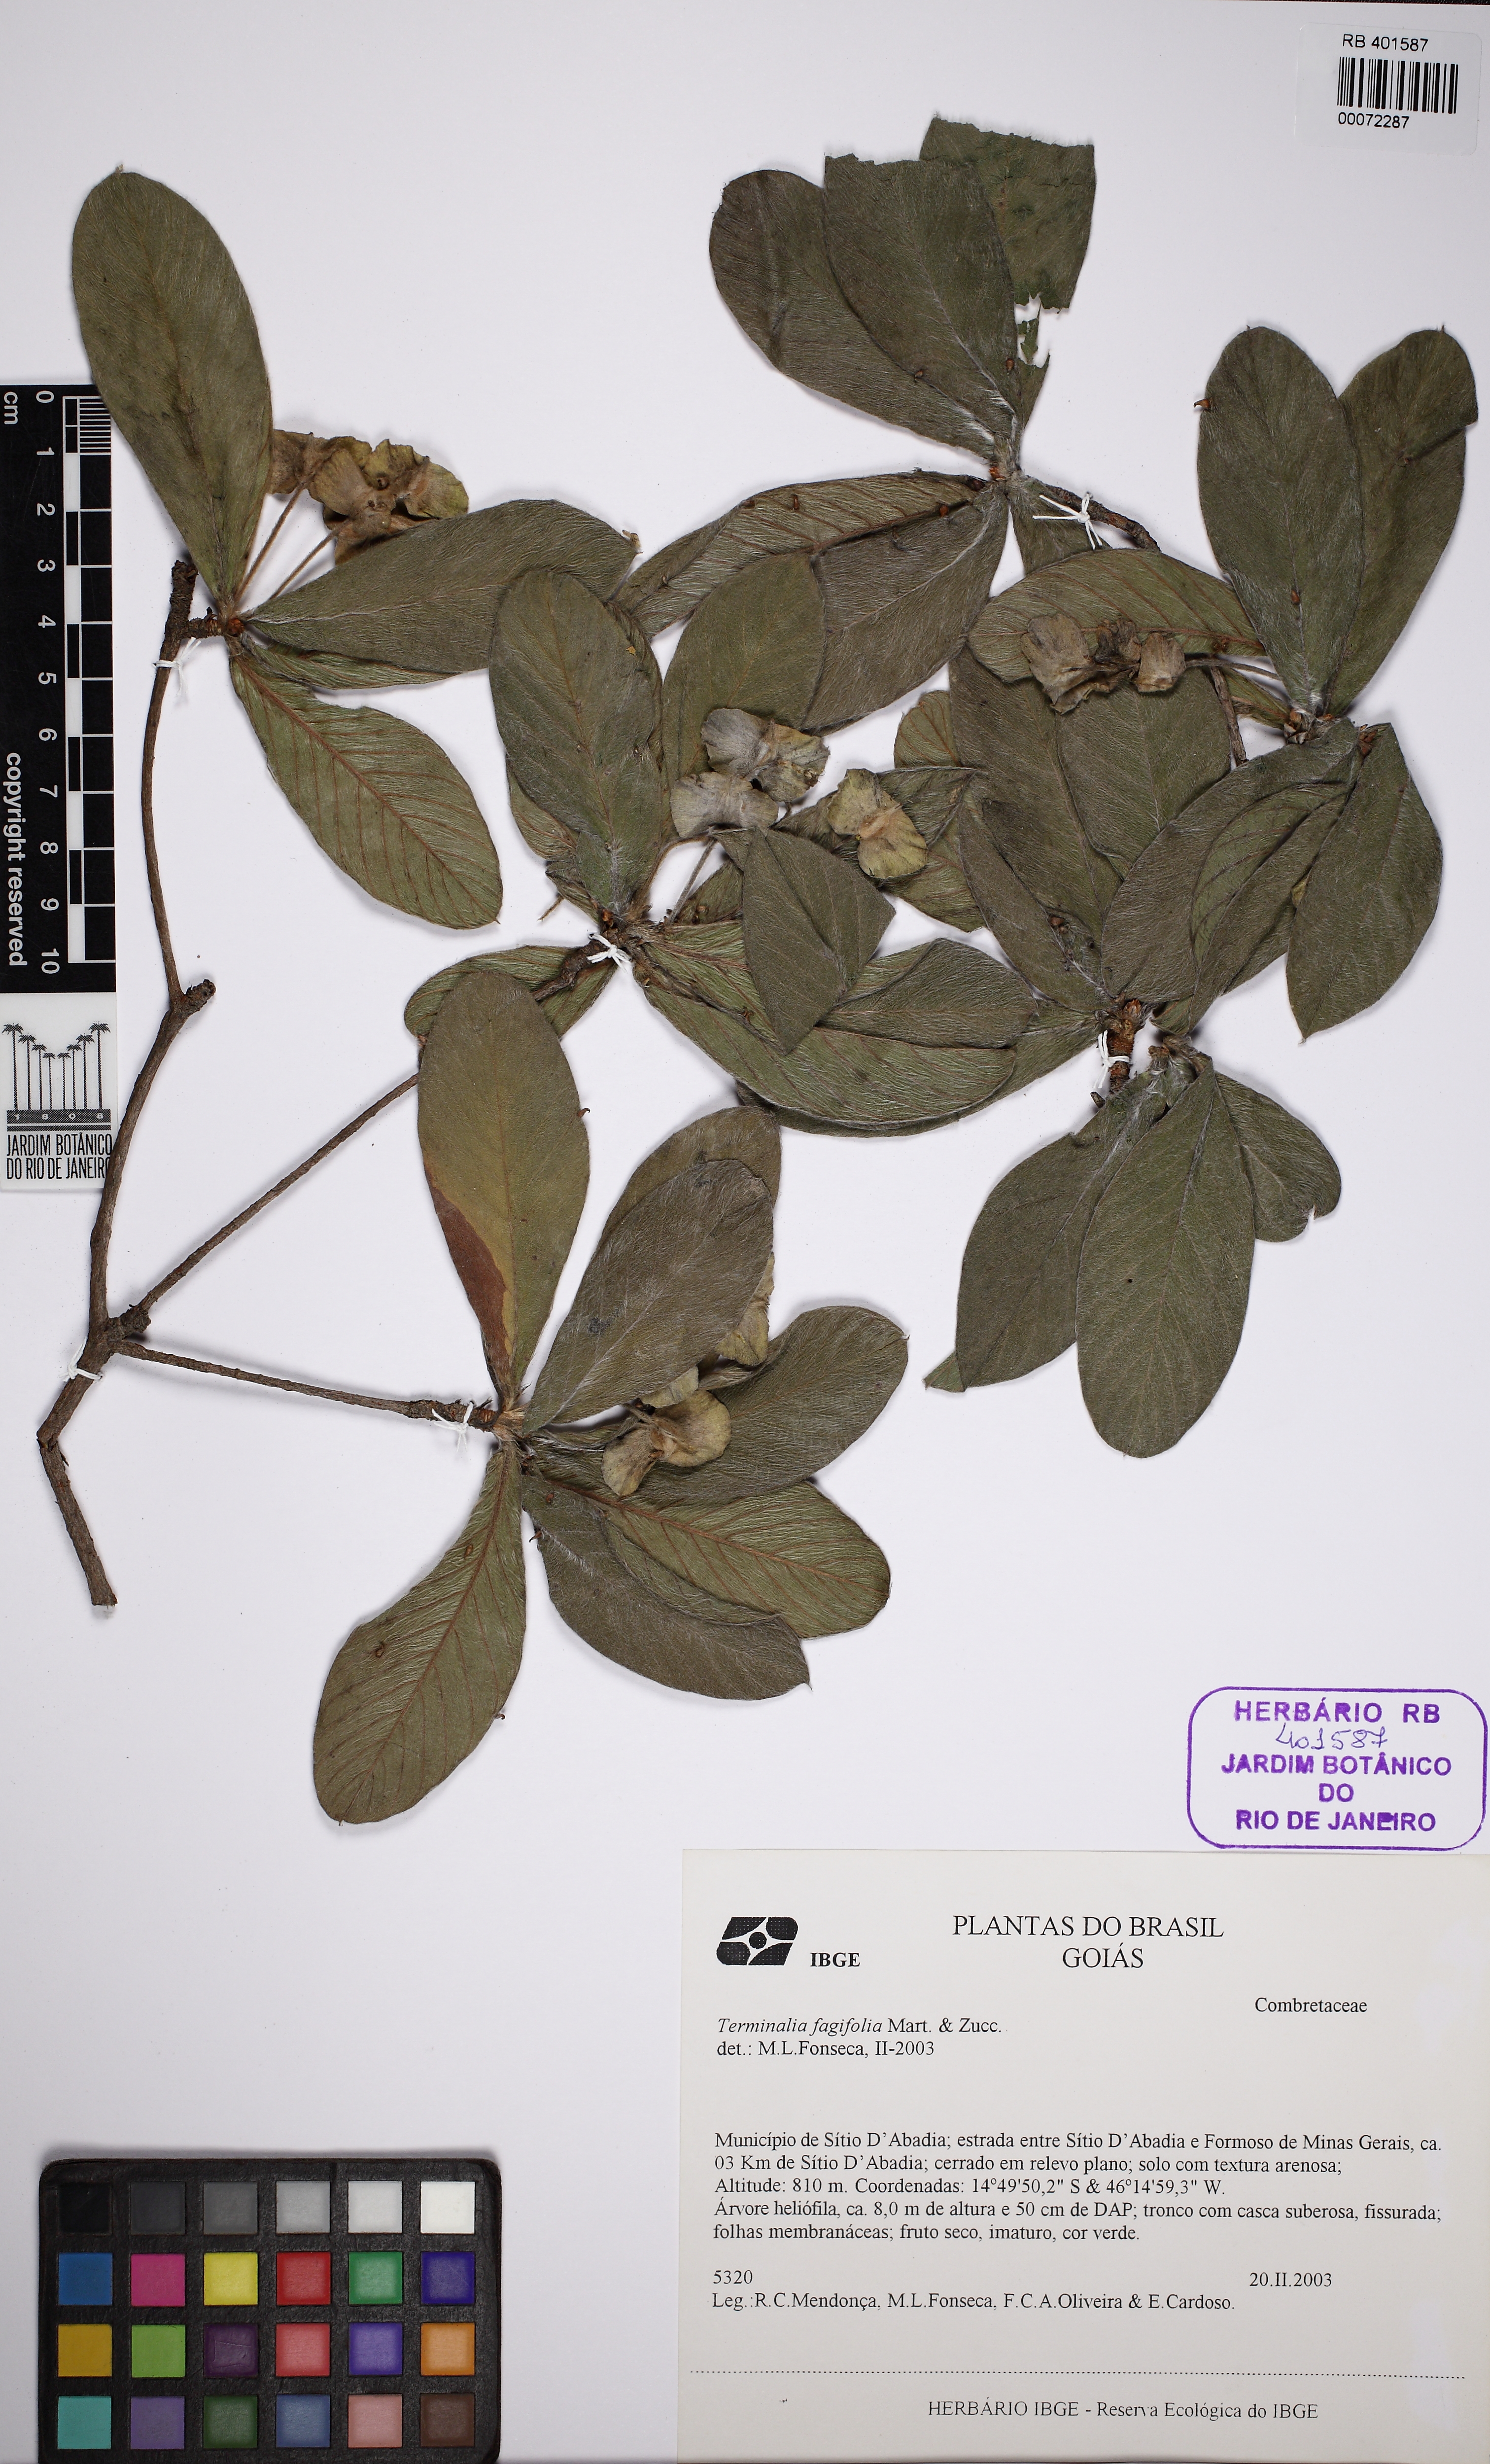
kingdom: Plantae
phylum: Tracheophyta
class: Magnoliopsida
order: Myrtales
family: Combretaceae
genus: Terminalia
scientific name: Terminalia fagifolia
